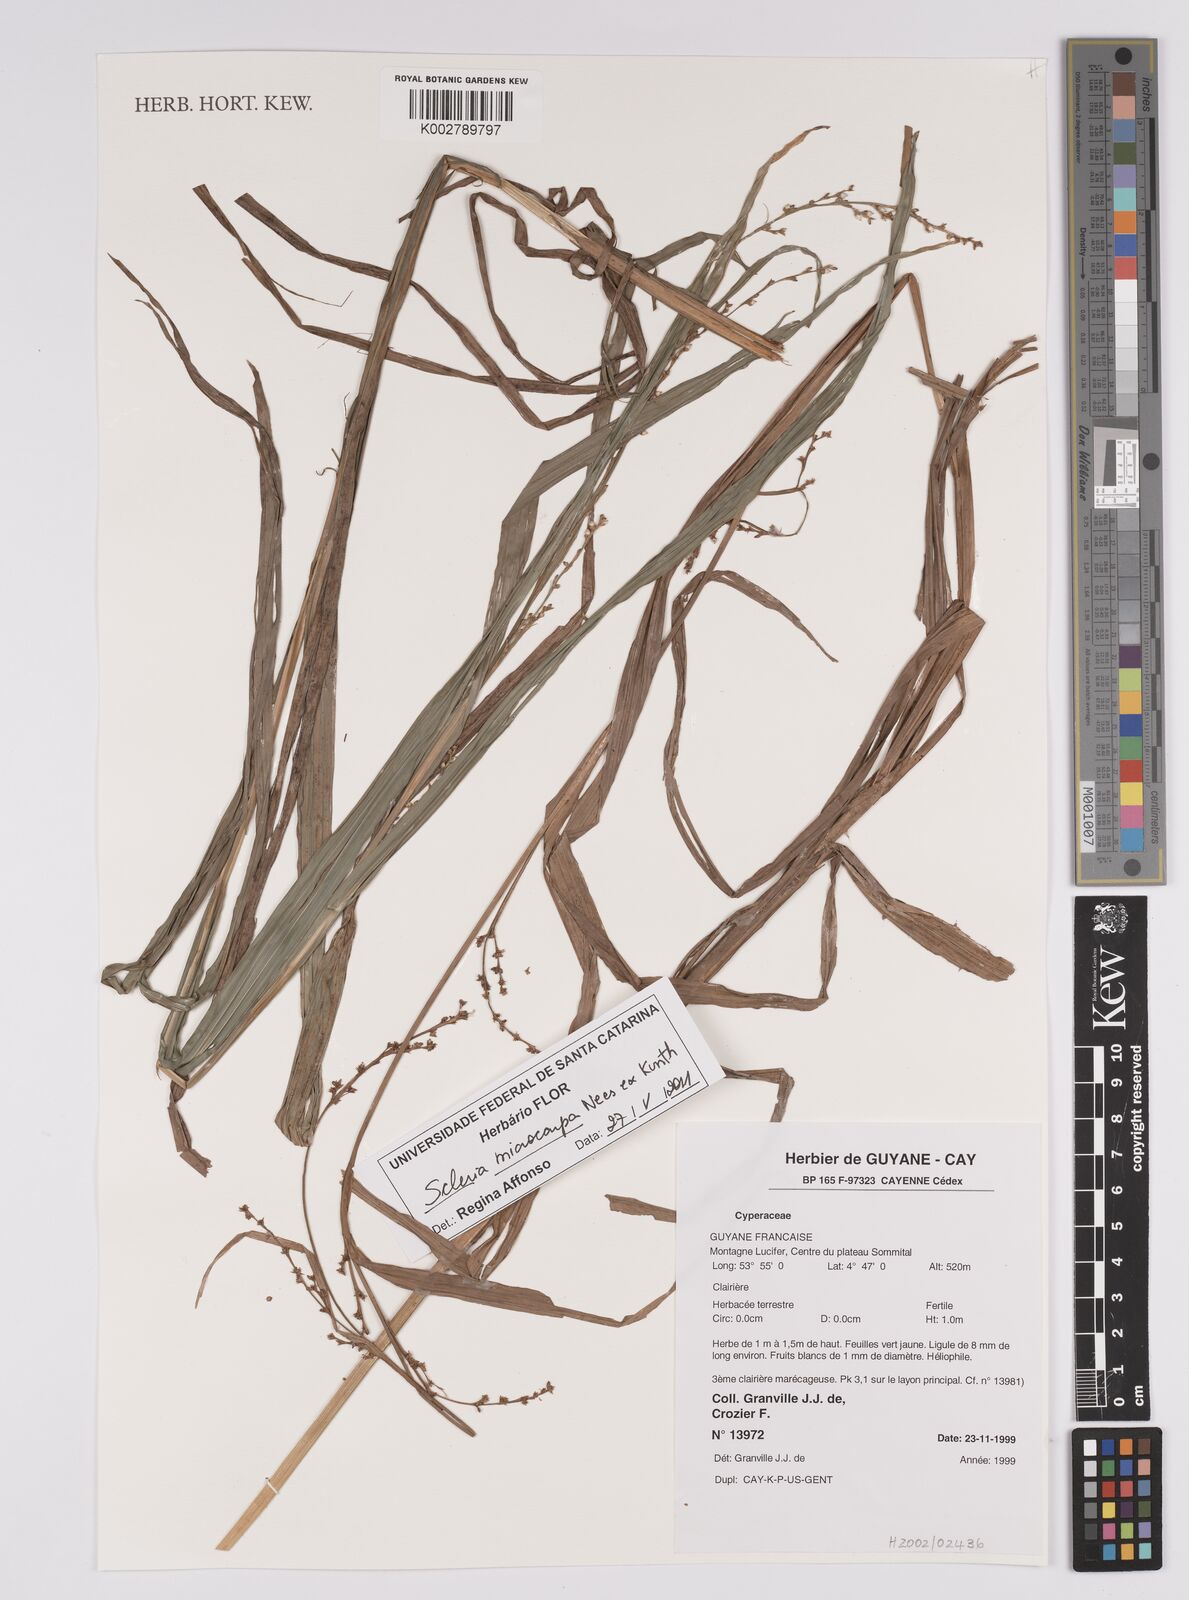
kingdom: Plantae
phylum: Tracheophyta
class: Liliopsida
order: Poales
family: Cyperaceae
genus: Scleria
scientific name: Scleria
